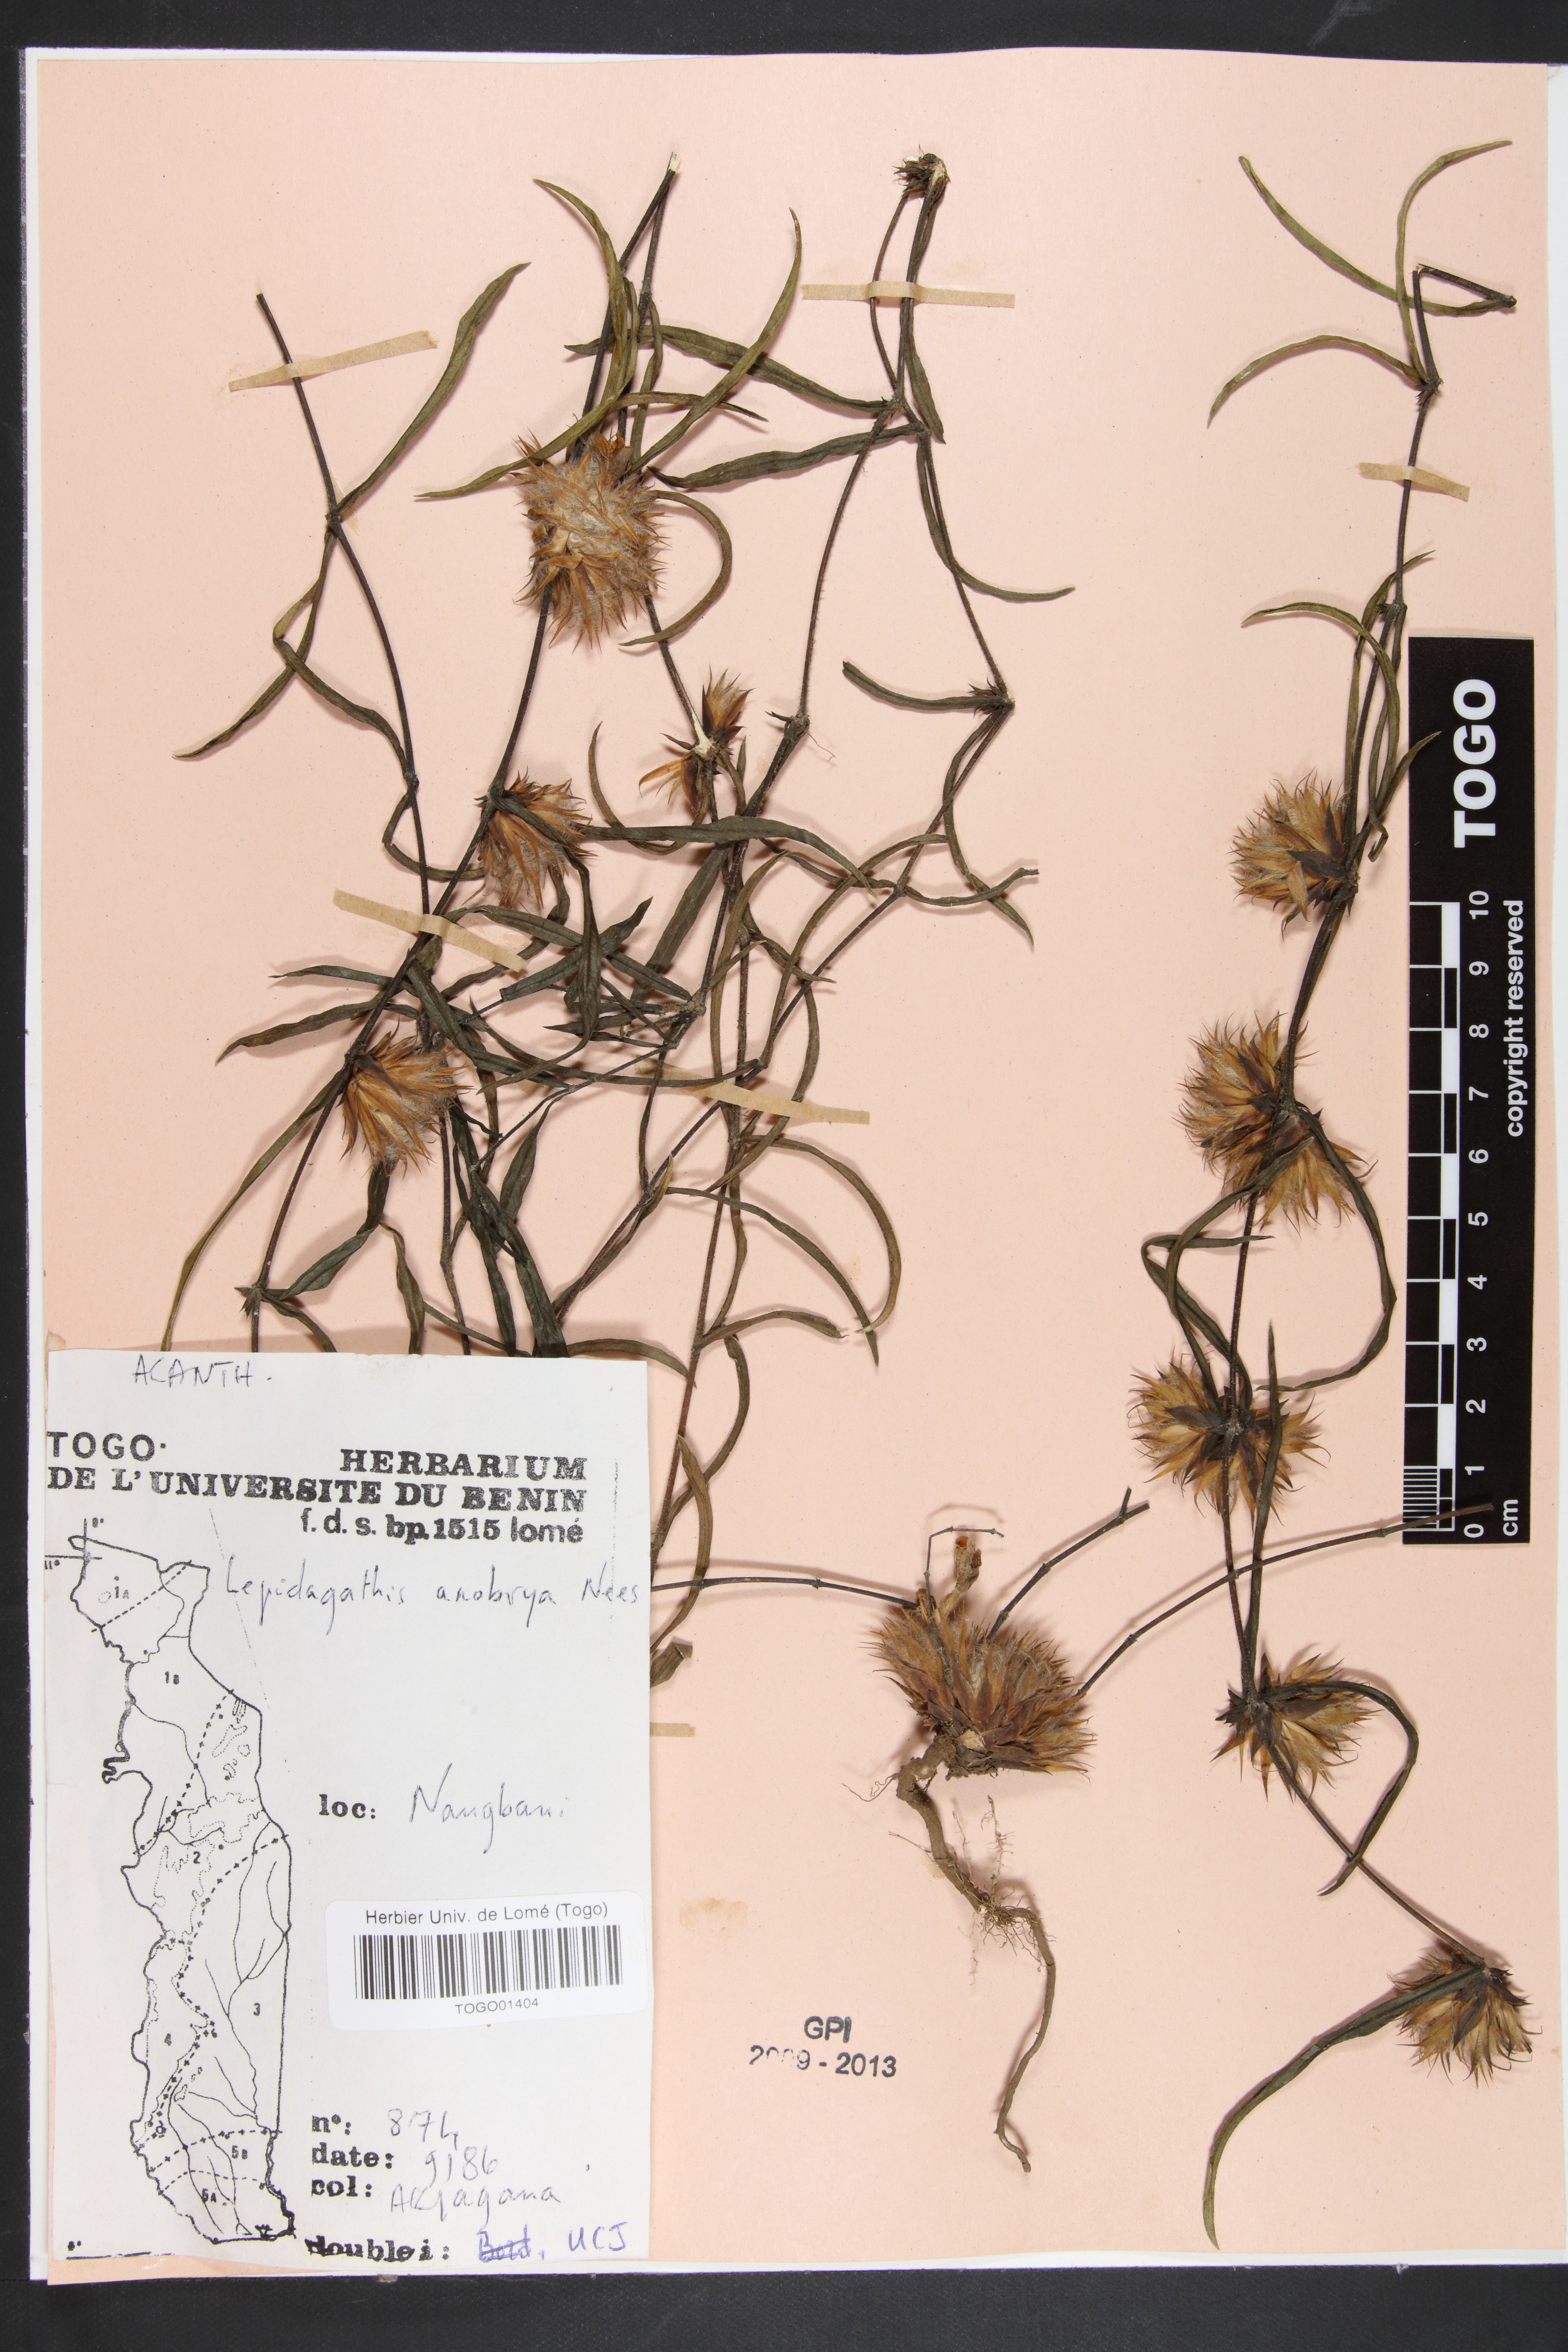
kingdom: Plantae
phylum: Tracheophyta
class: Magnoliopsida
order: Lamiales
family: Acanthaceae
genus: Lepidagathis
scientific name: Lepidagathis anobrya
